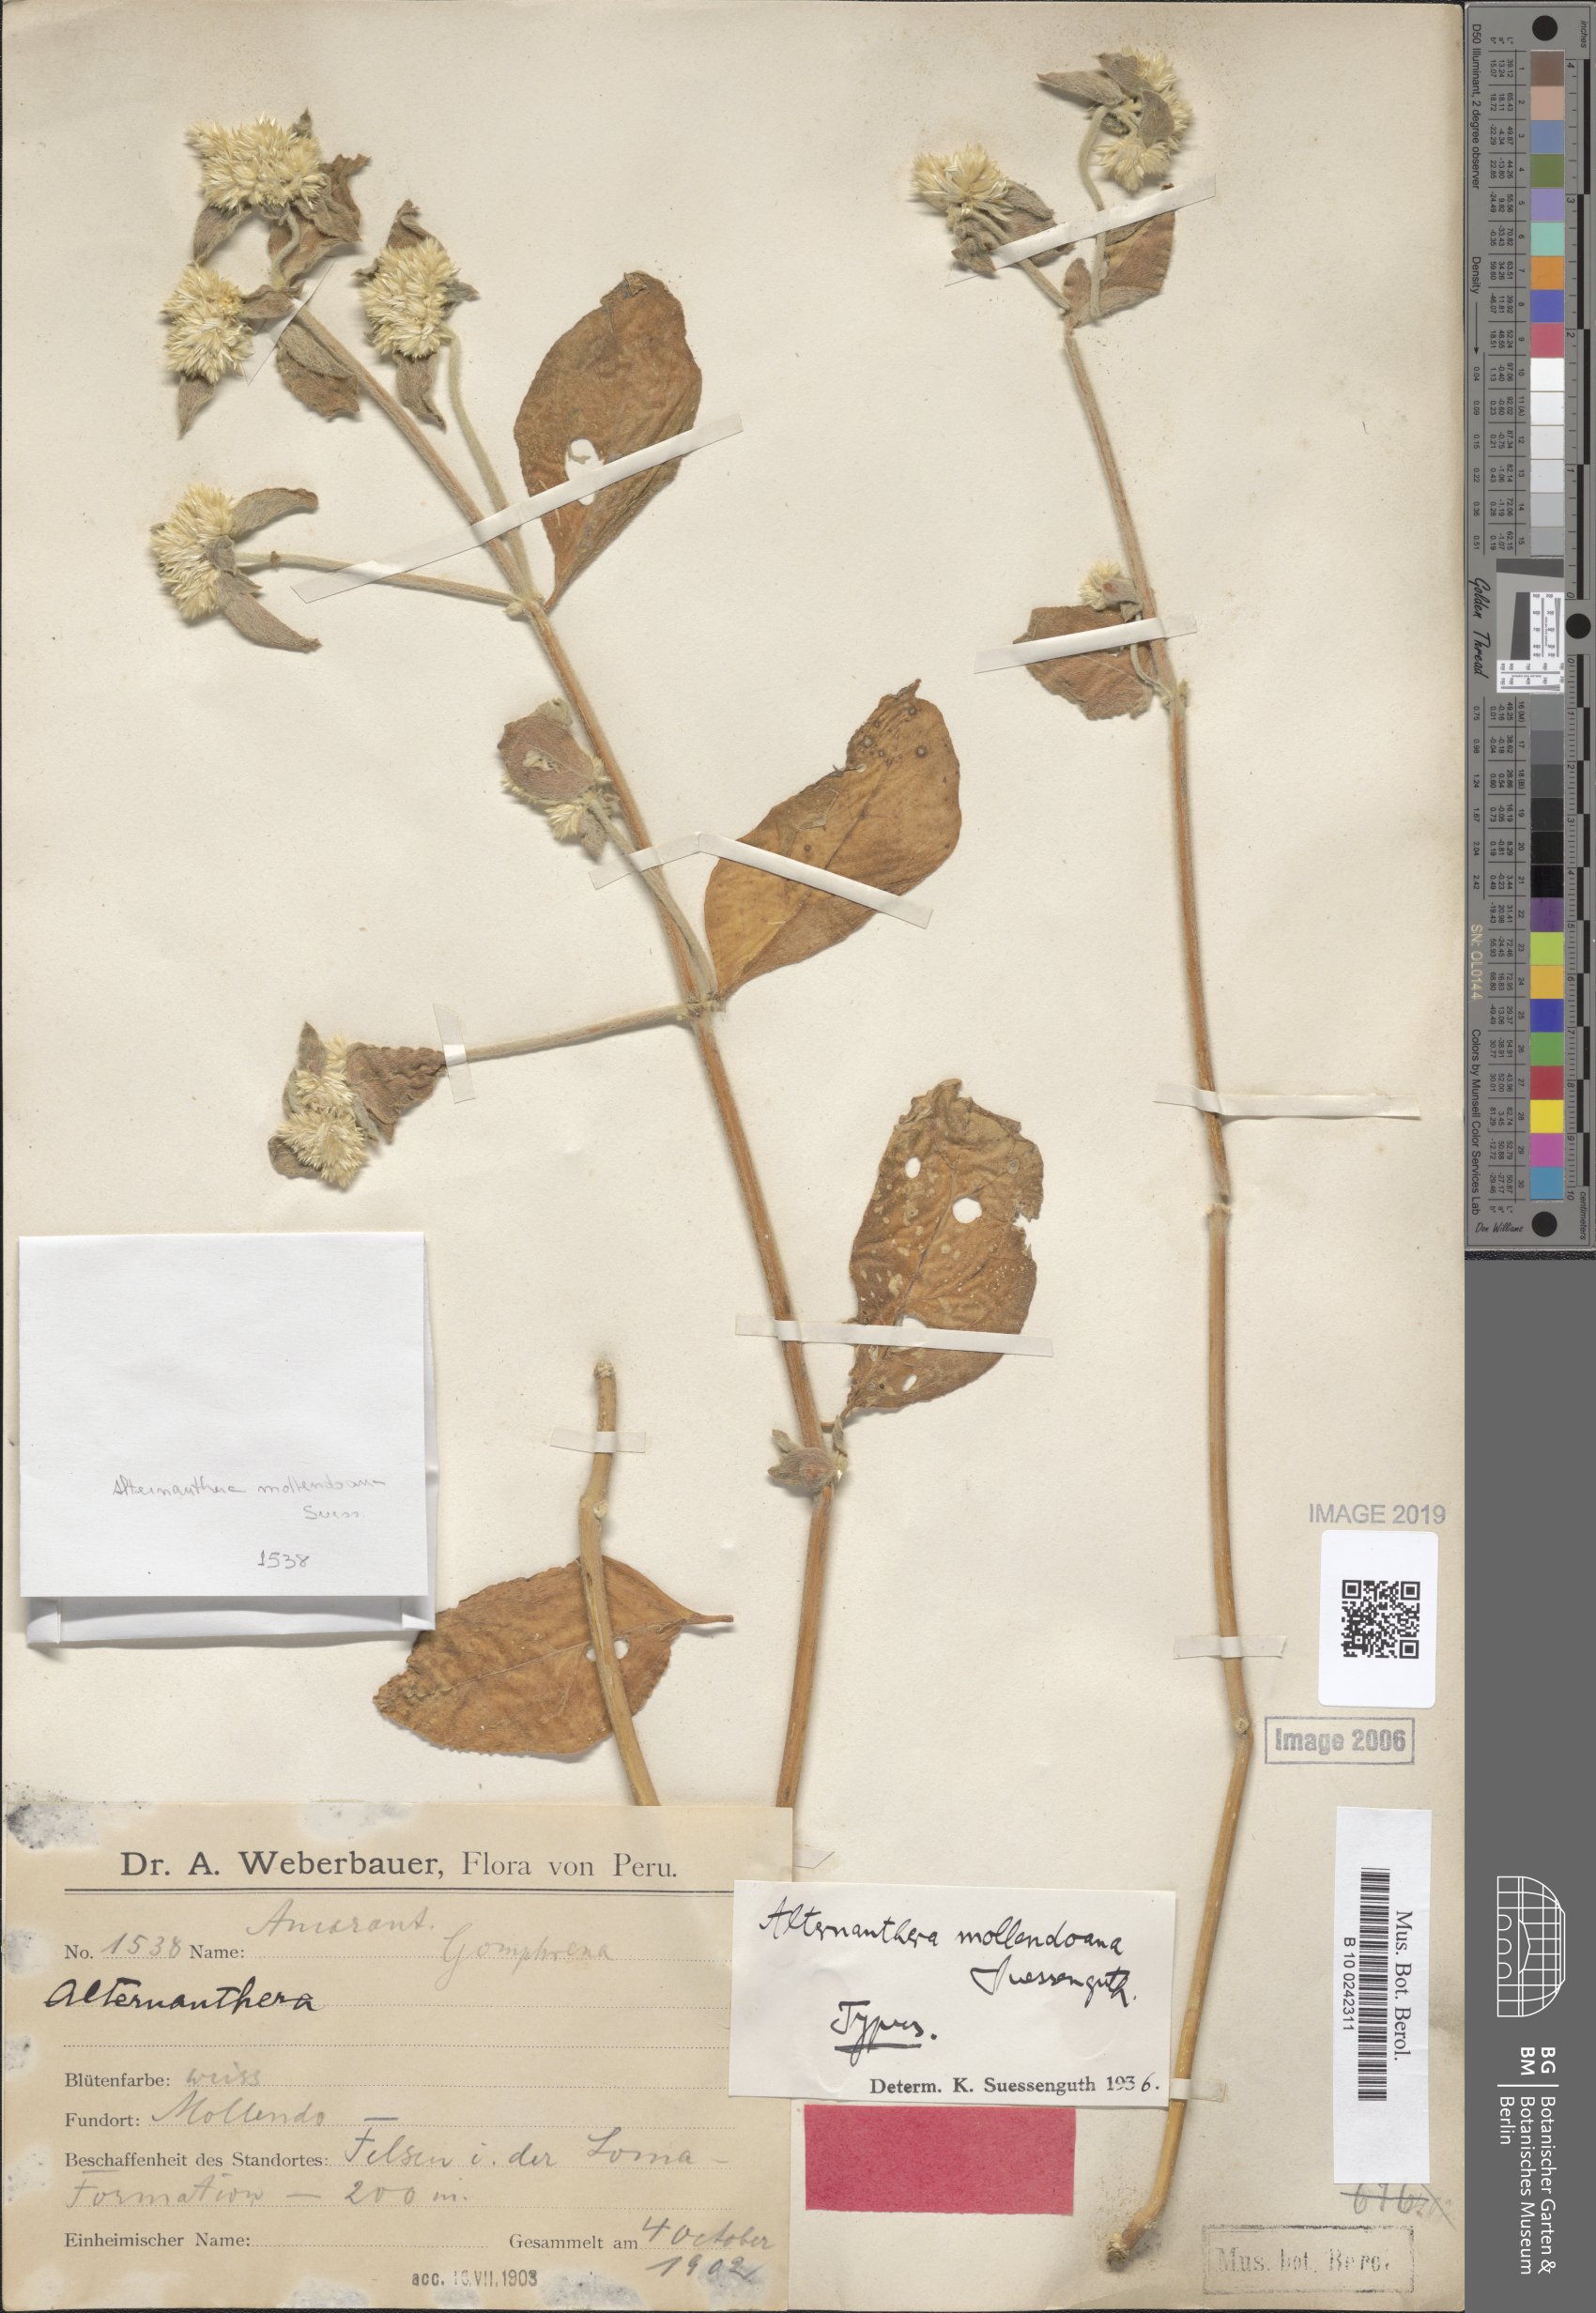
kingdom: Plantae
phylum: Tracheophyta
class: Magnoliopsida
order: Caryophyllales
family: Amaranthaceae
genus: Alternanthera
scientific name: Alternanthera pubiflora
